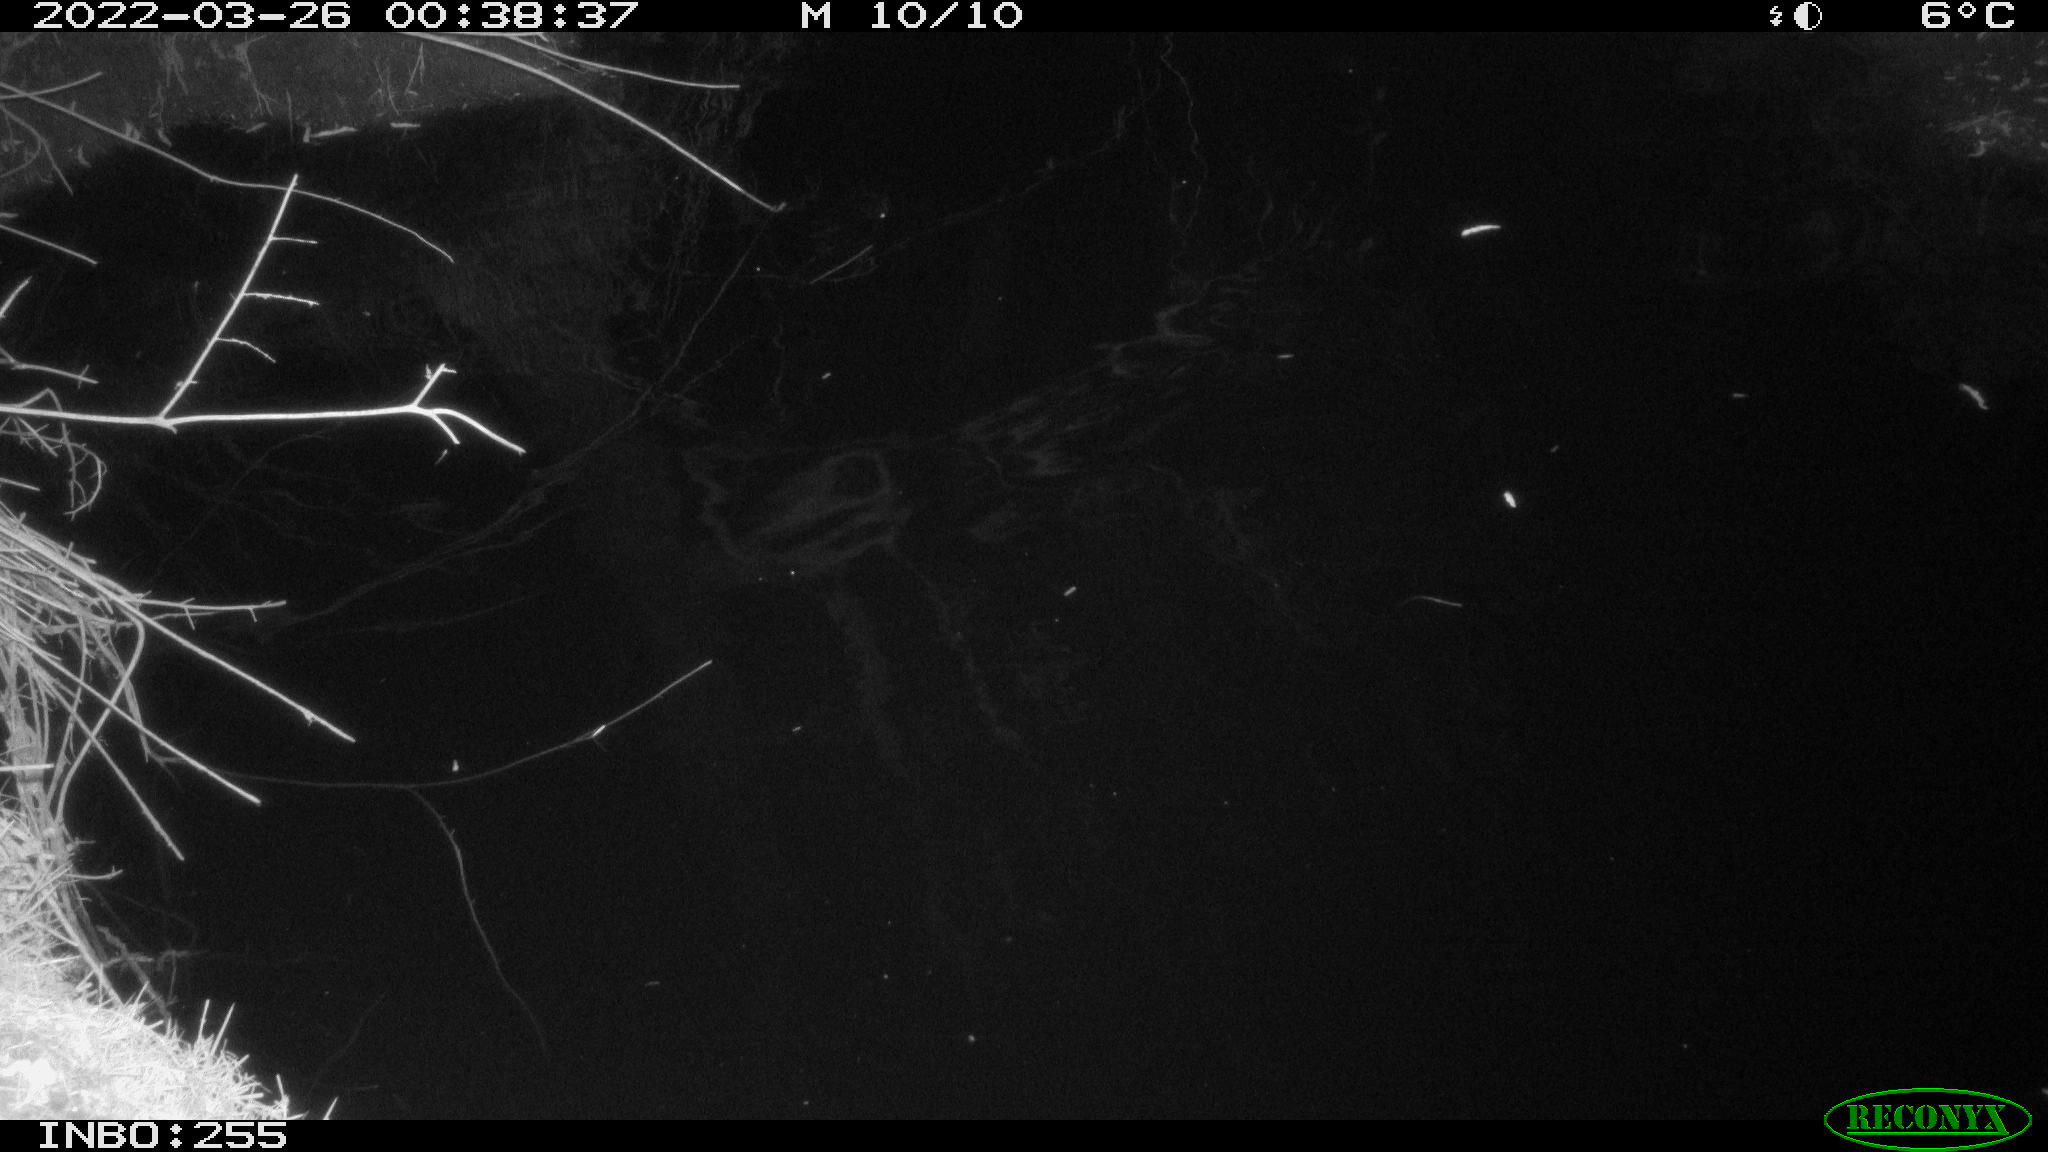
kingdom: Animalia
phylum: Chordata
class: Aves
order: Anseriformes
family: Anatidae
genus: Anas
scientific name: Anas platyrhynchos
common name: Mallard
